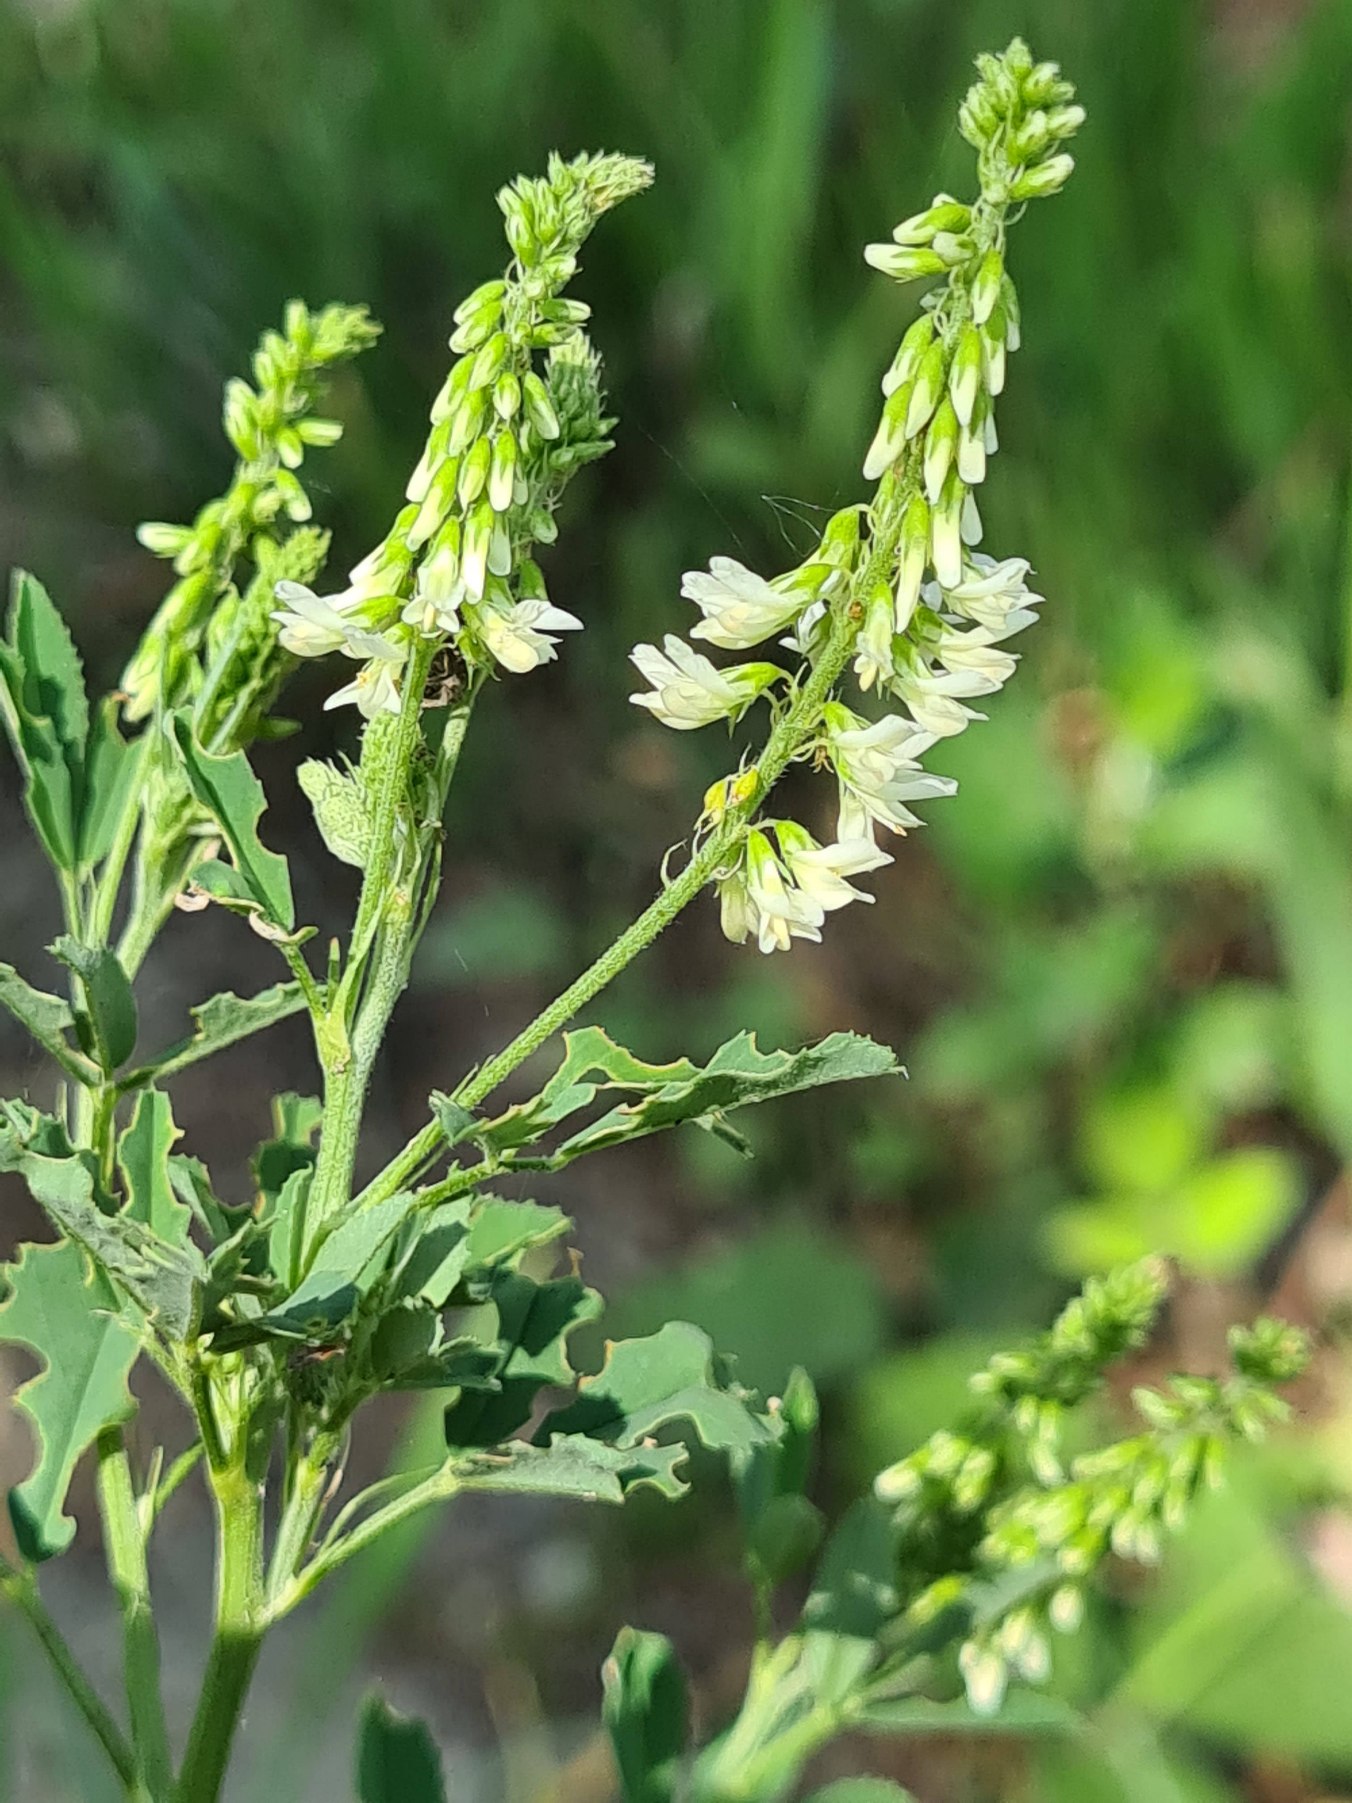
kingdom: Plantae
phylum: Tracheophyta
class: Magnoliopsida
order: Fabales
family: Fabaceae
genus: Melilotus
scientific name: Melilotus albus
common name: Hvid stenkløver
